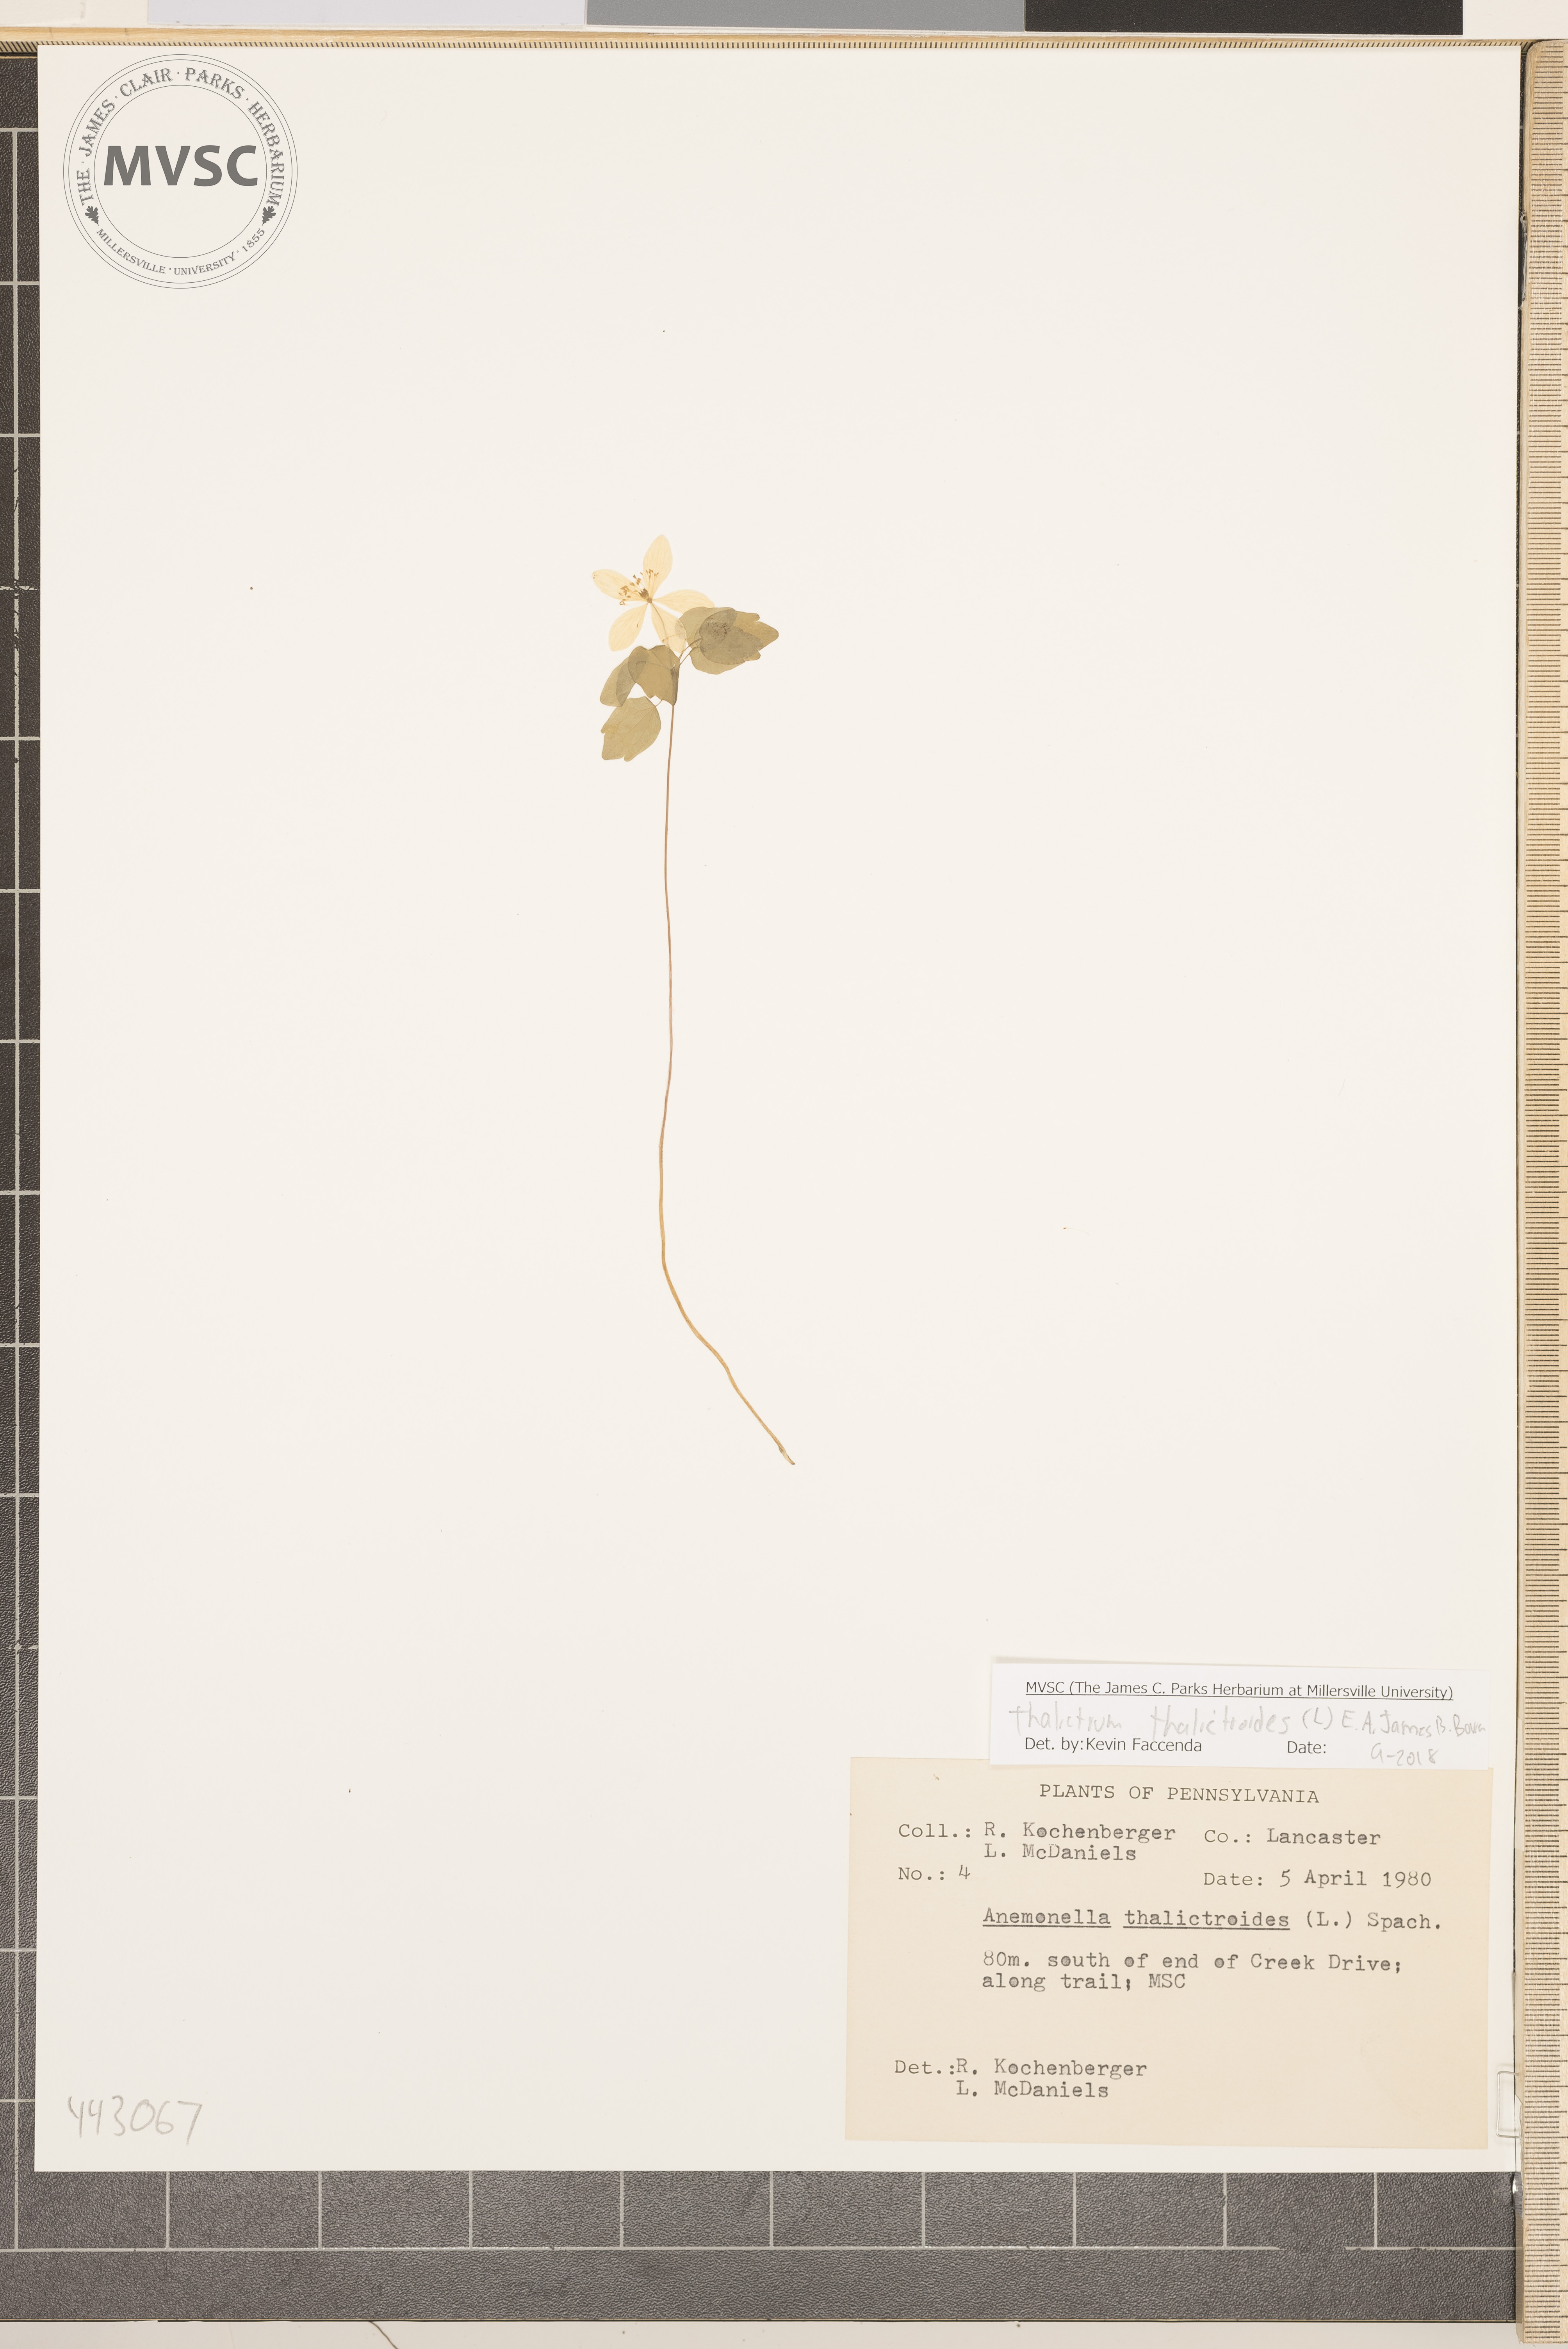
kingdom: Plantae
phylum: Tracheophyta
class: Magnoliopsida
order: Ranunculales
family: Ranunculaceae
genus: Thalictrum
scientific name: Thalictrum thalictroides
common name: Rue-anemone
